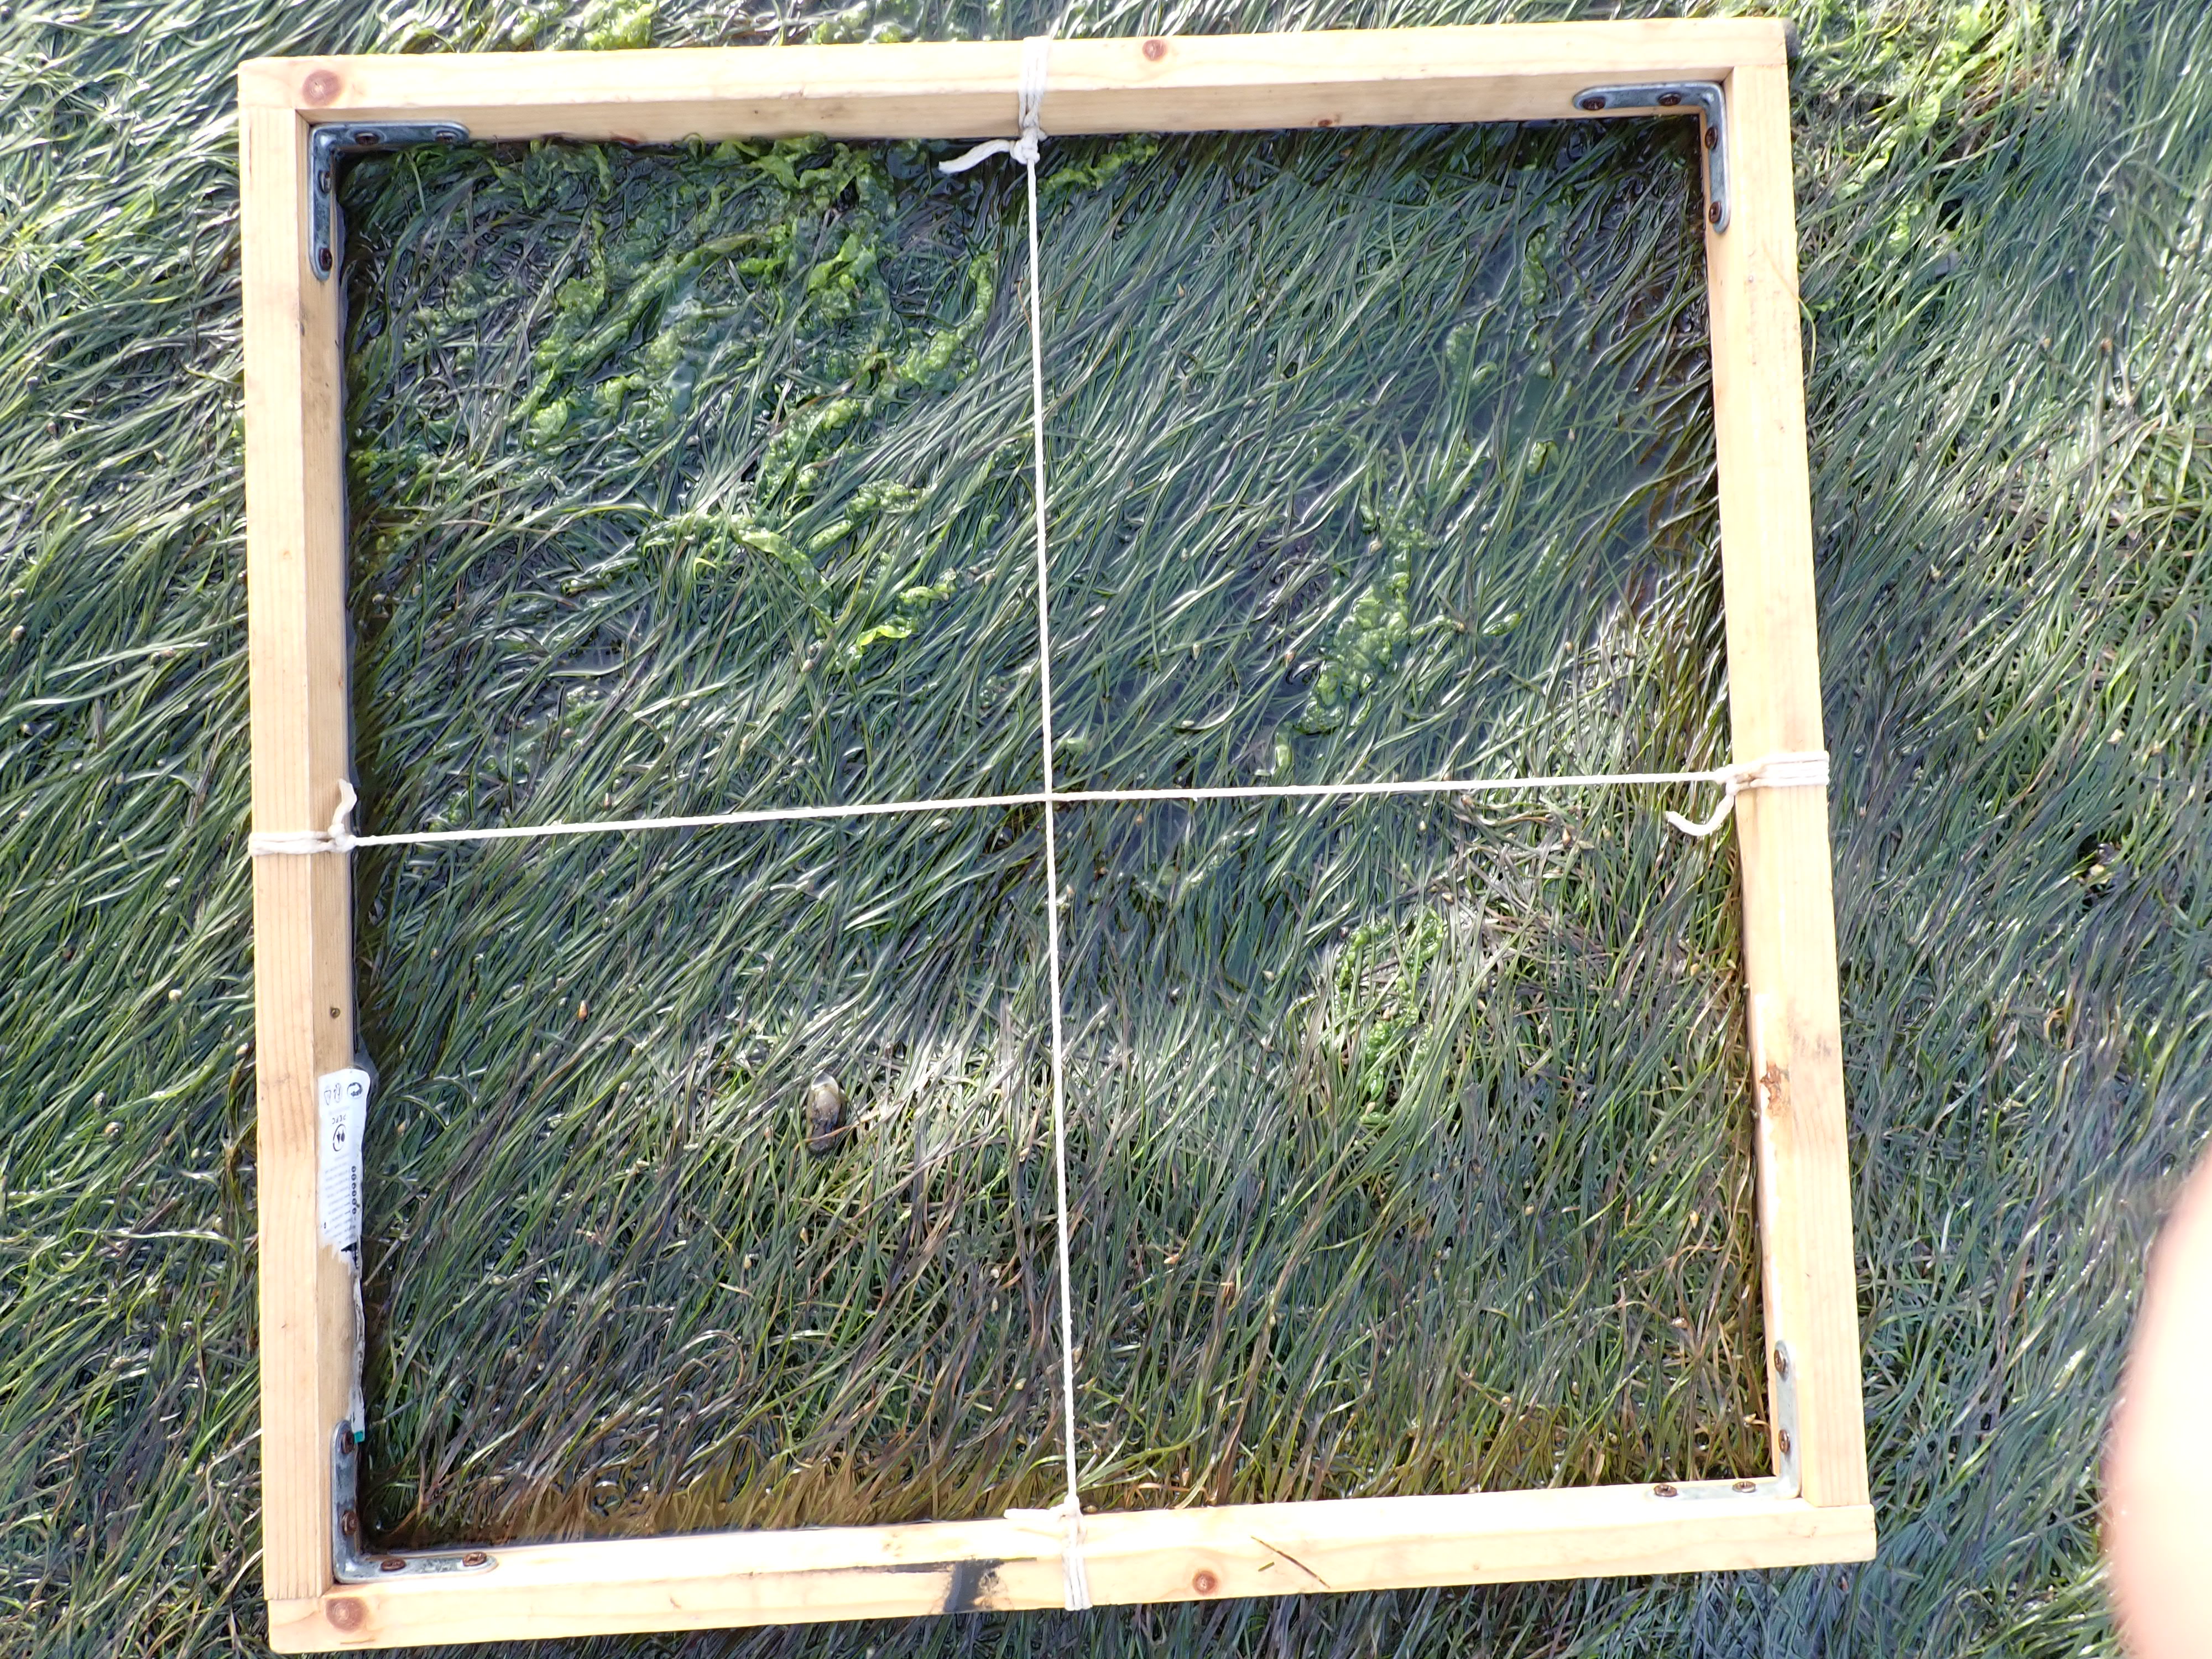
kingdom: Plantae
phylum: Tracheophyta
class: Liliopsida
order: Alismatales
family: Zosteraceae
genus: Zostera
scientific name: Zostera noltii
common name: Dwarf eelgrass
